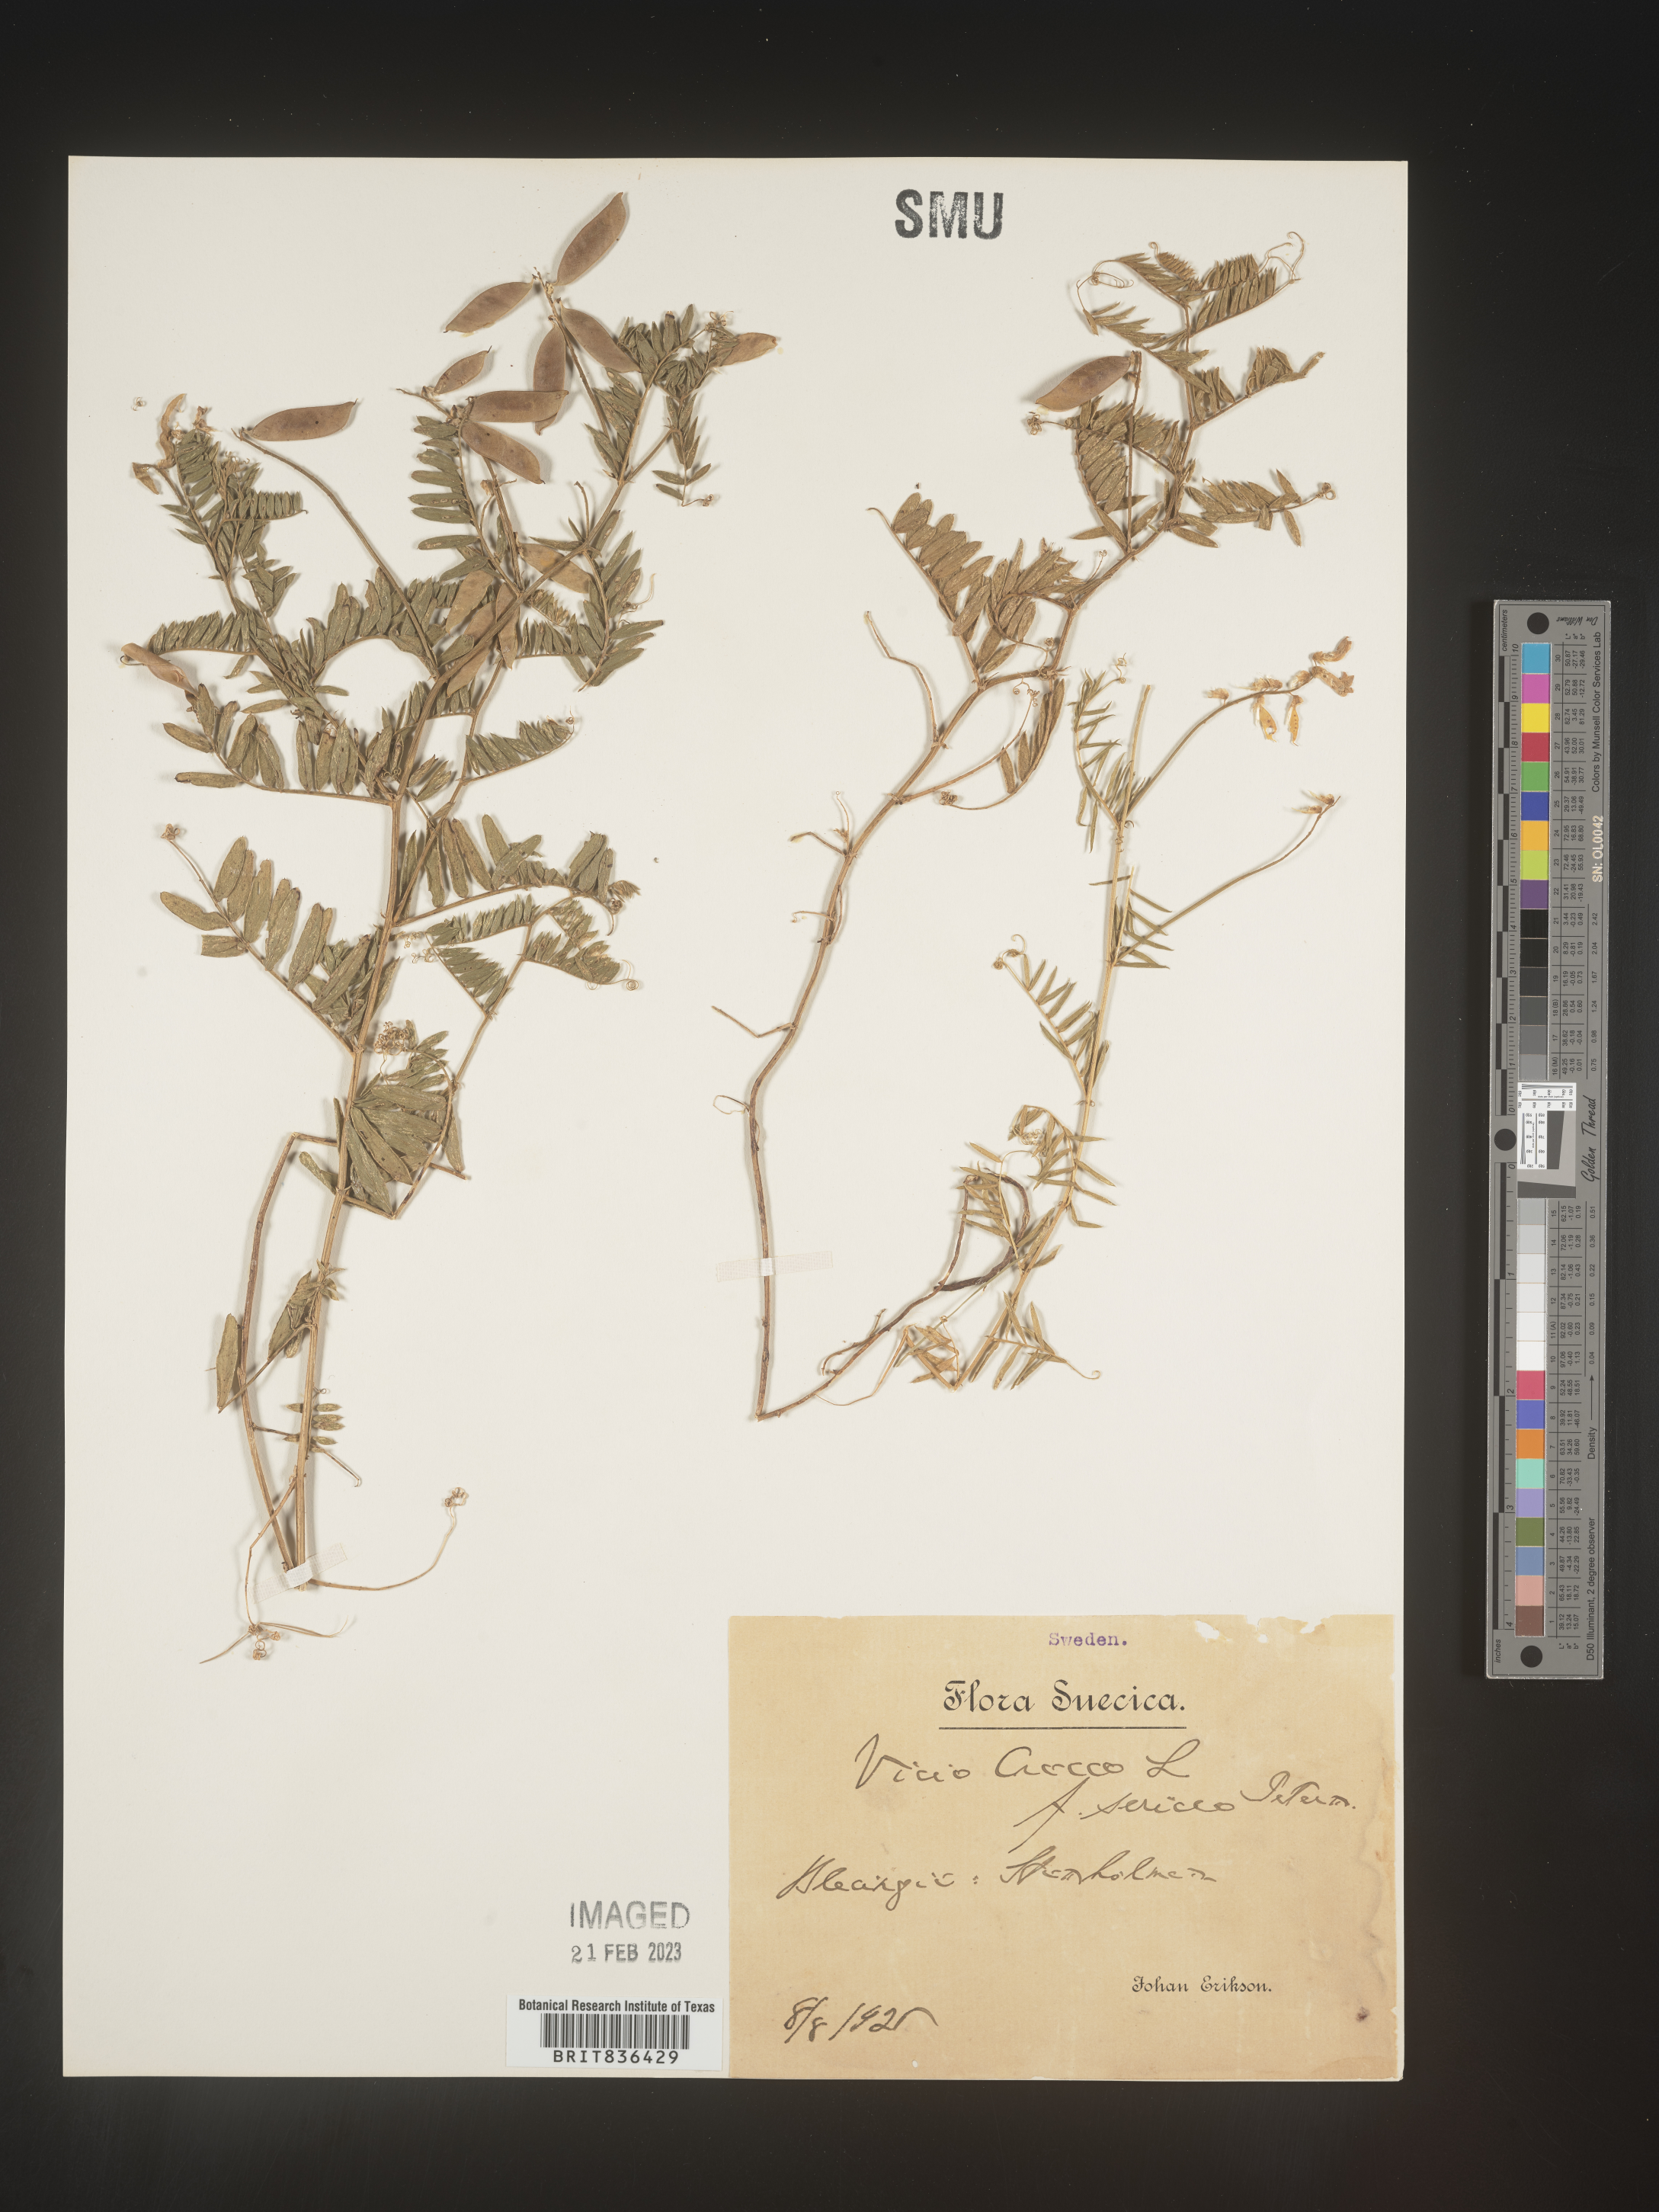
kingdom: Plantae
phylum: Tracheophyta
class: Magnoliopsida
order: Fabales
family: Fabaceae
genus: Vicia
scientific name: Vicia
